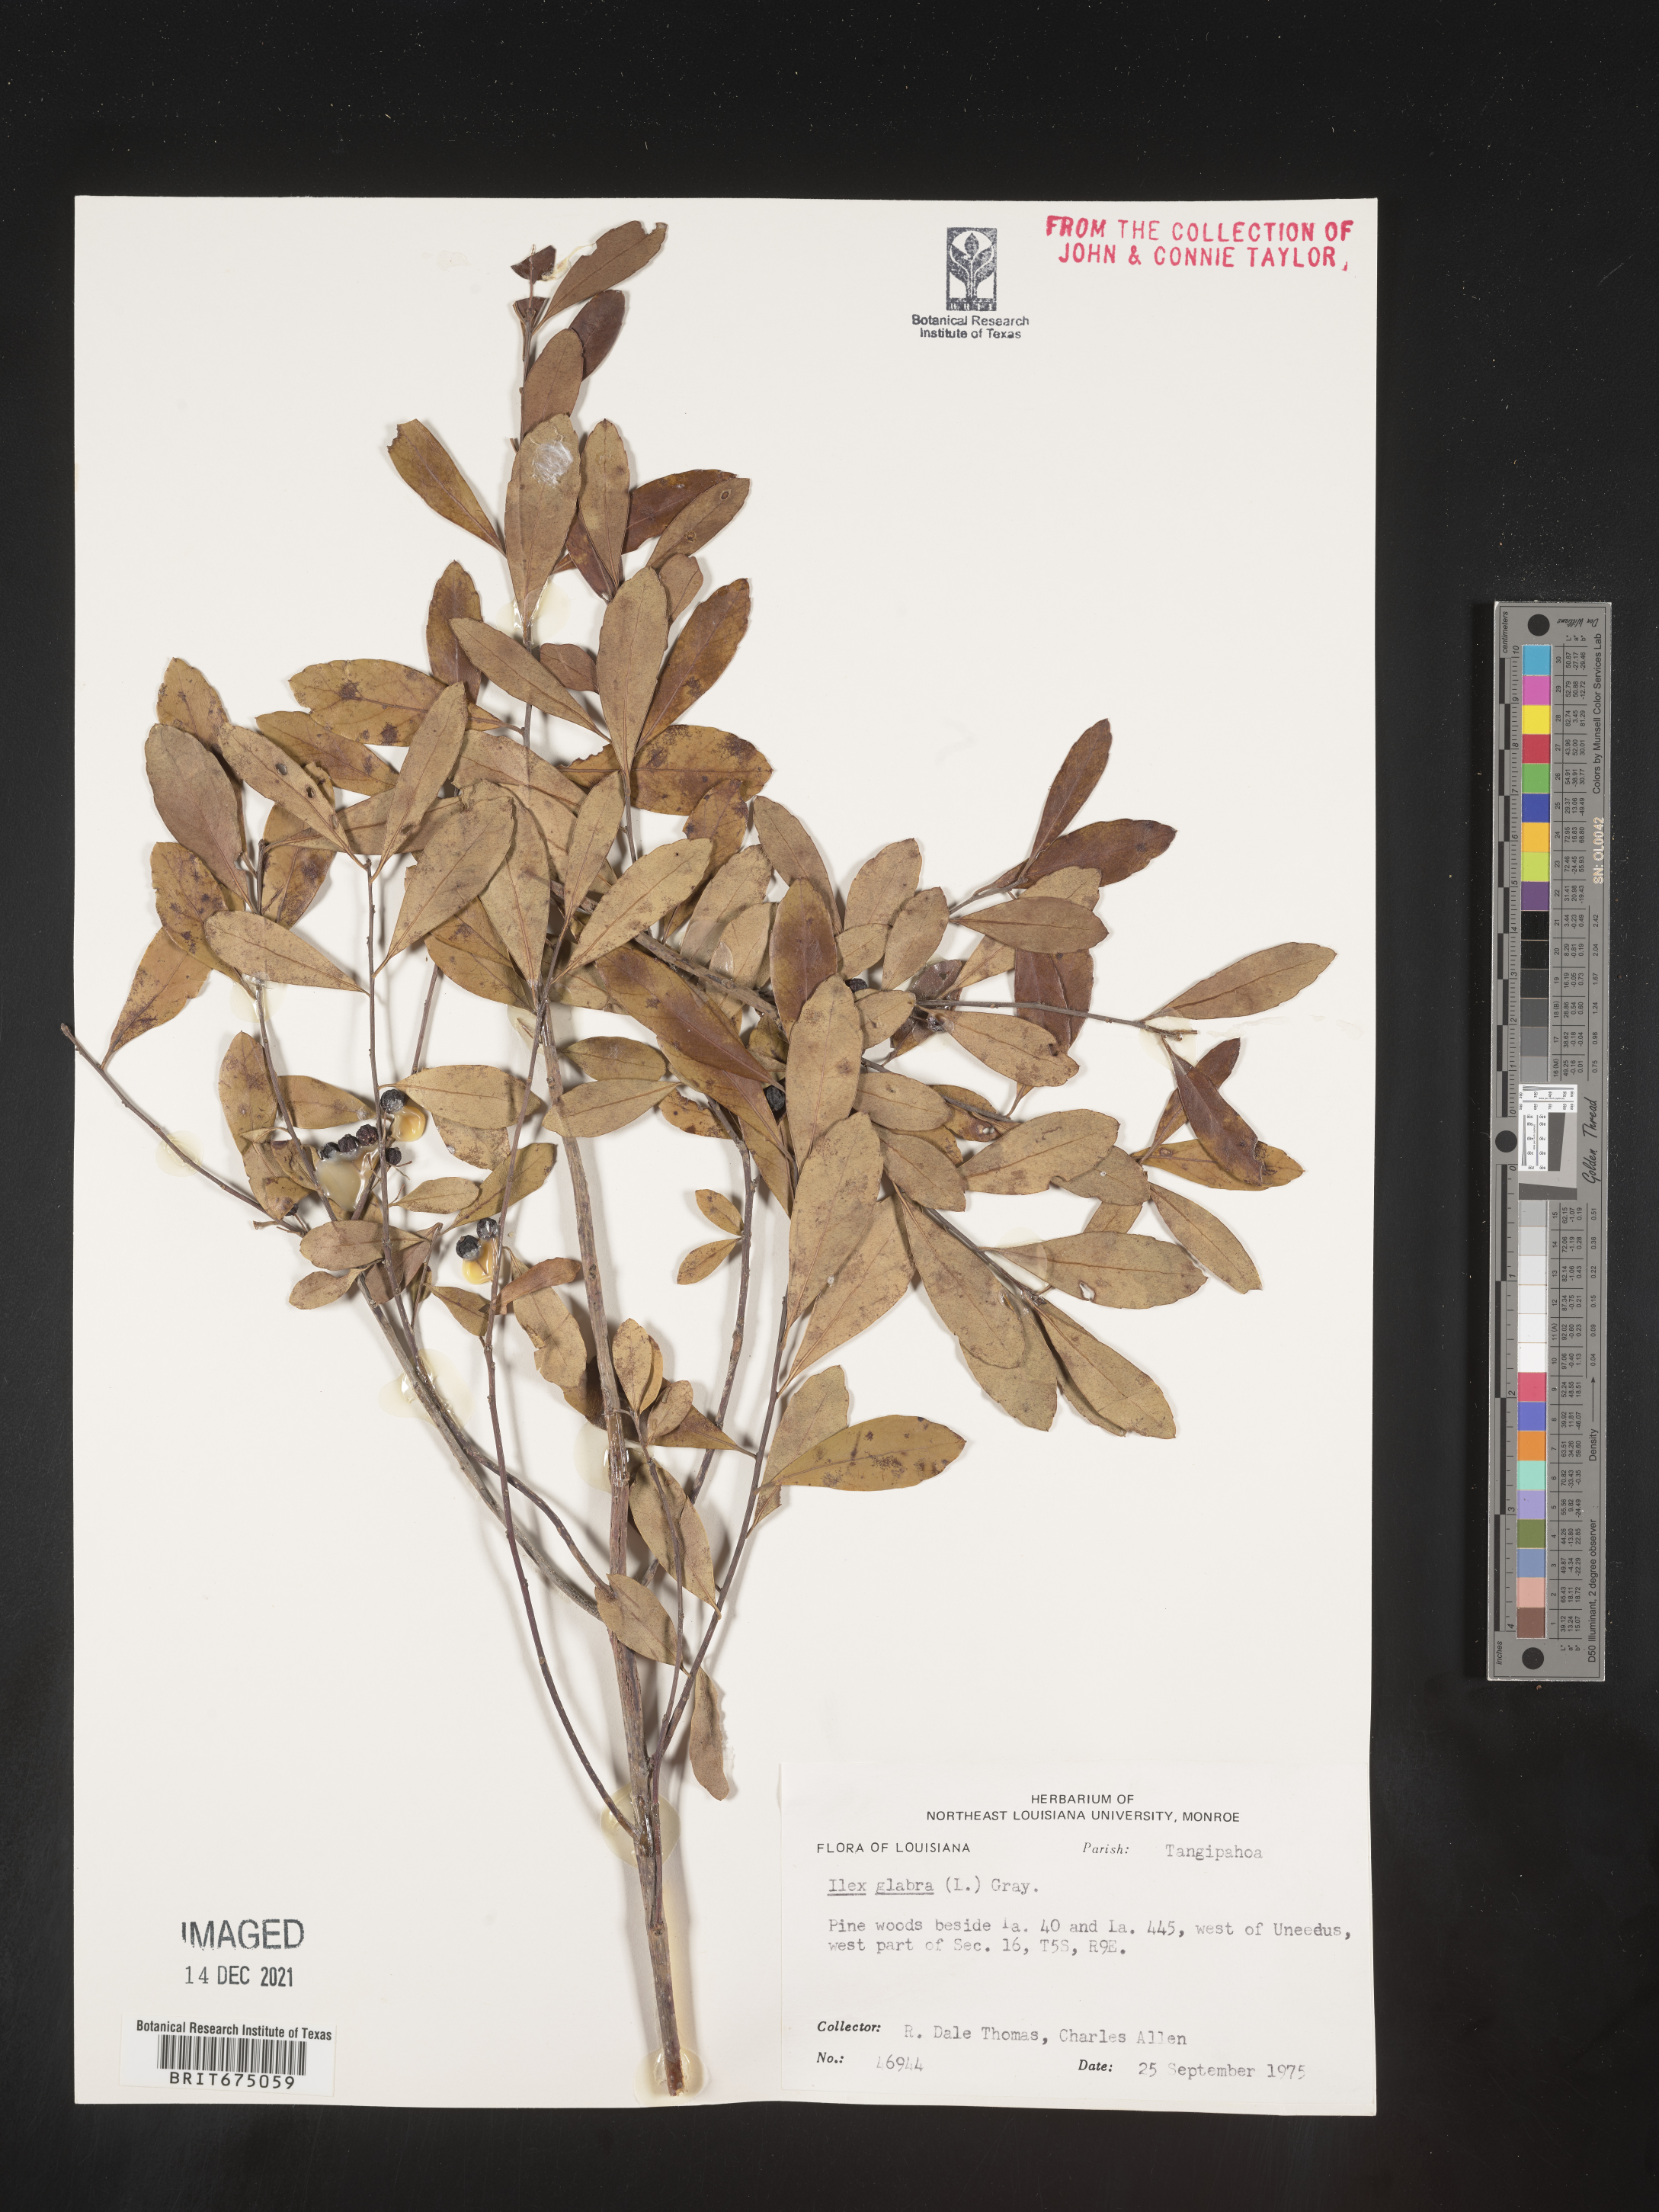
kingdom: Plantae
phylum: Tracheophyta
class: Magnoliopsida
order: Aquifoliales
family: Aquifoliaceae
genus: Ilex
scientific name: Ilex glabra
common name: Bitter gallberry
